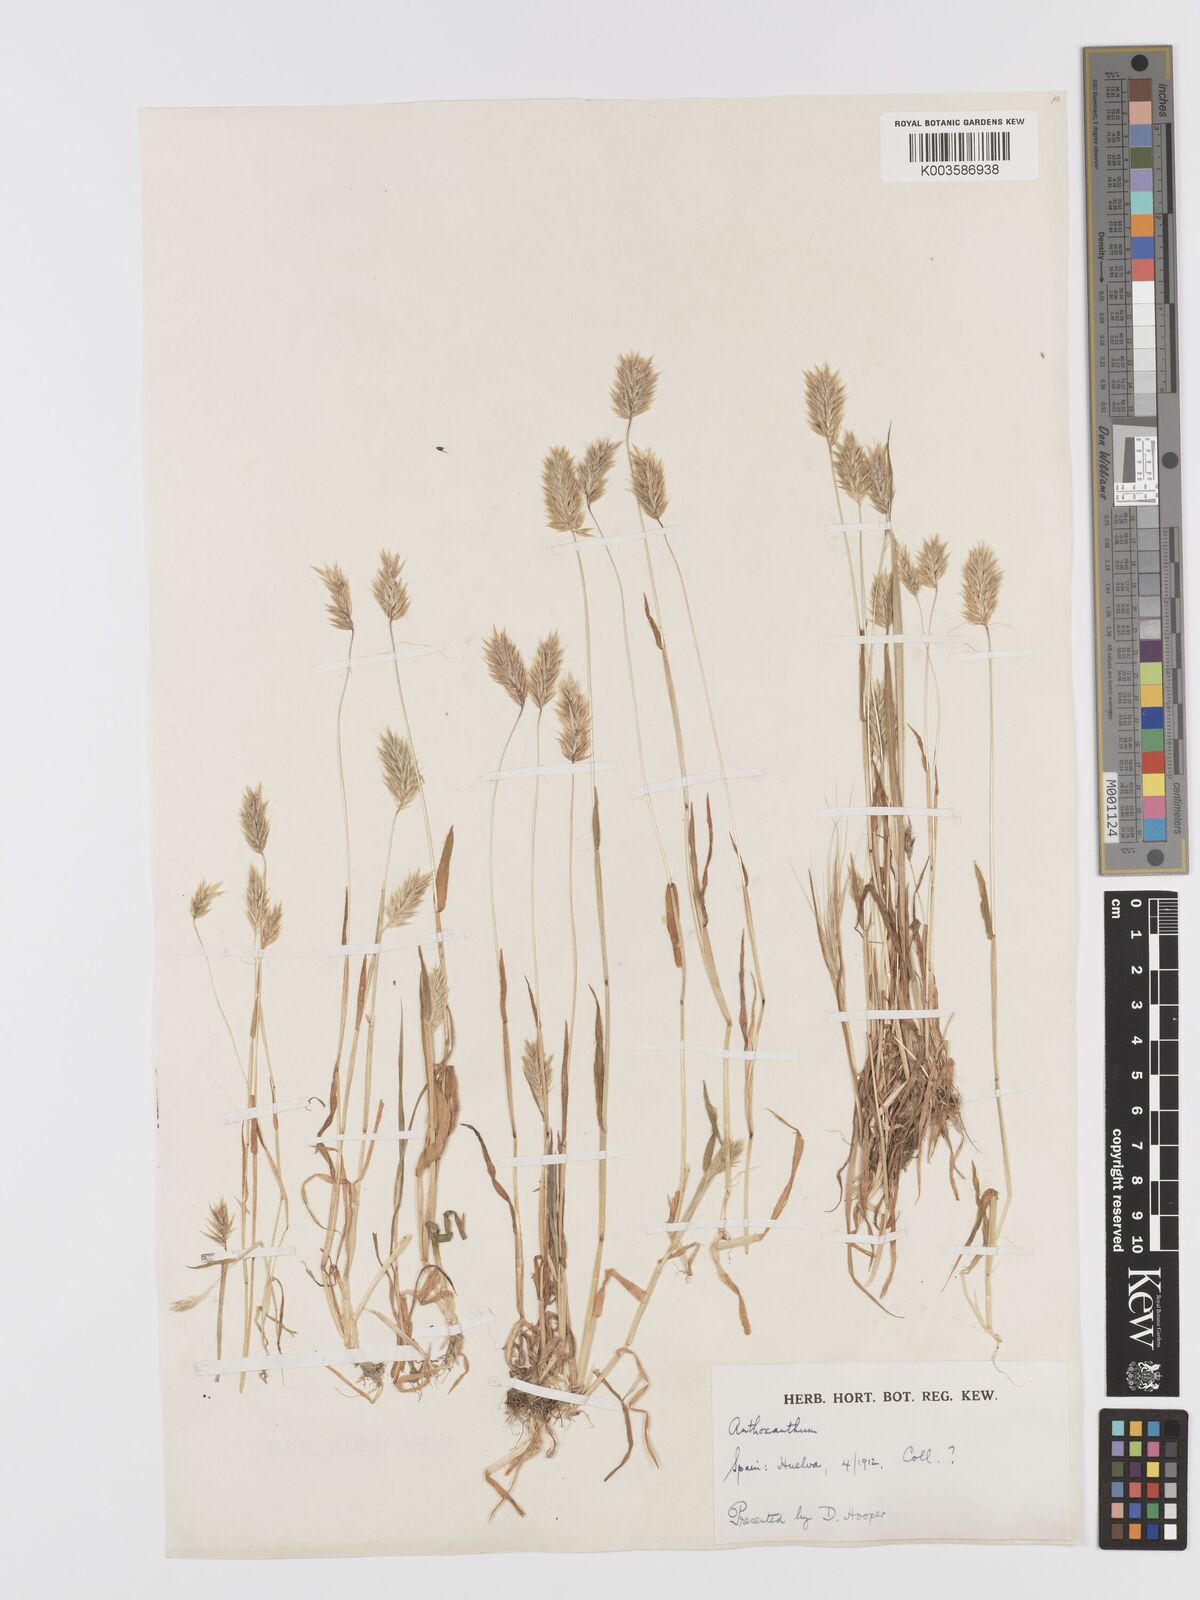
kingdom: Plantae
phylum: Tracheophyta
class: Liliopsida
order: Poales
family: Poaceae
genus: Anthoxanthum
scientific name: Anthoxanthum
